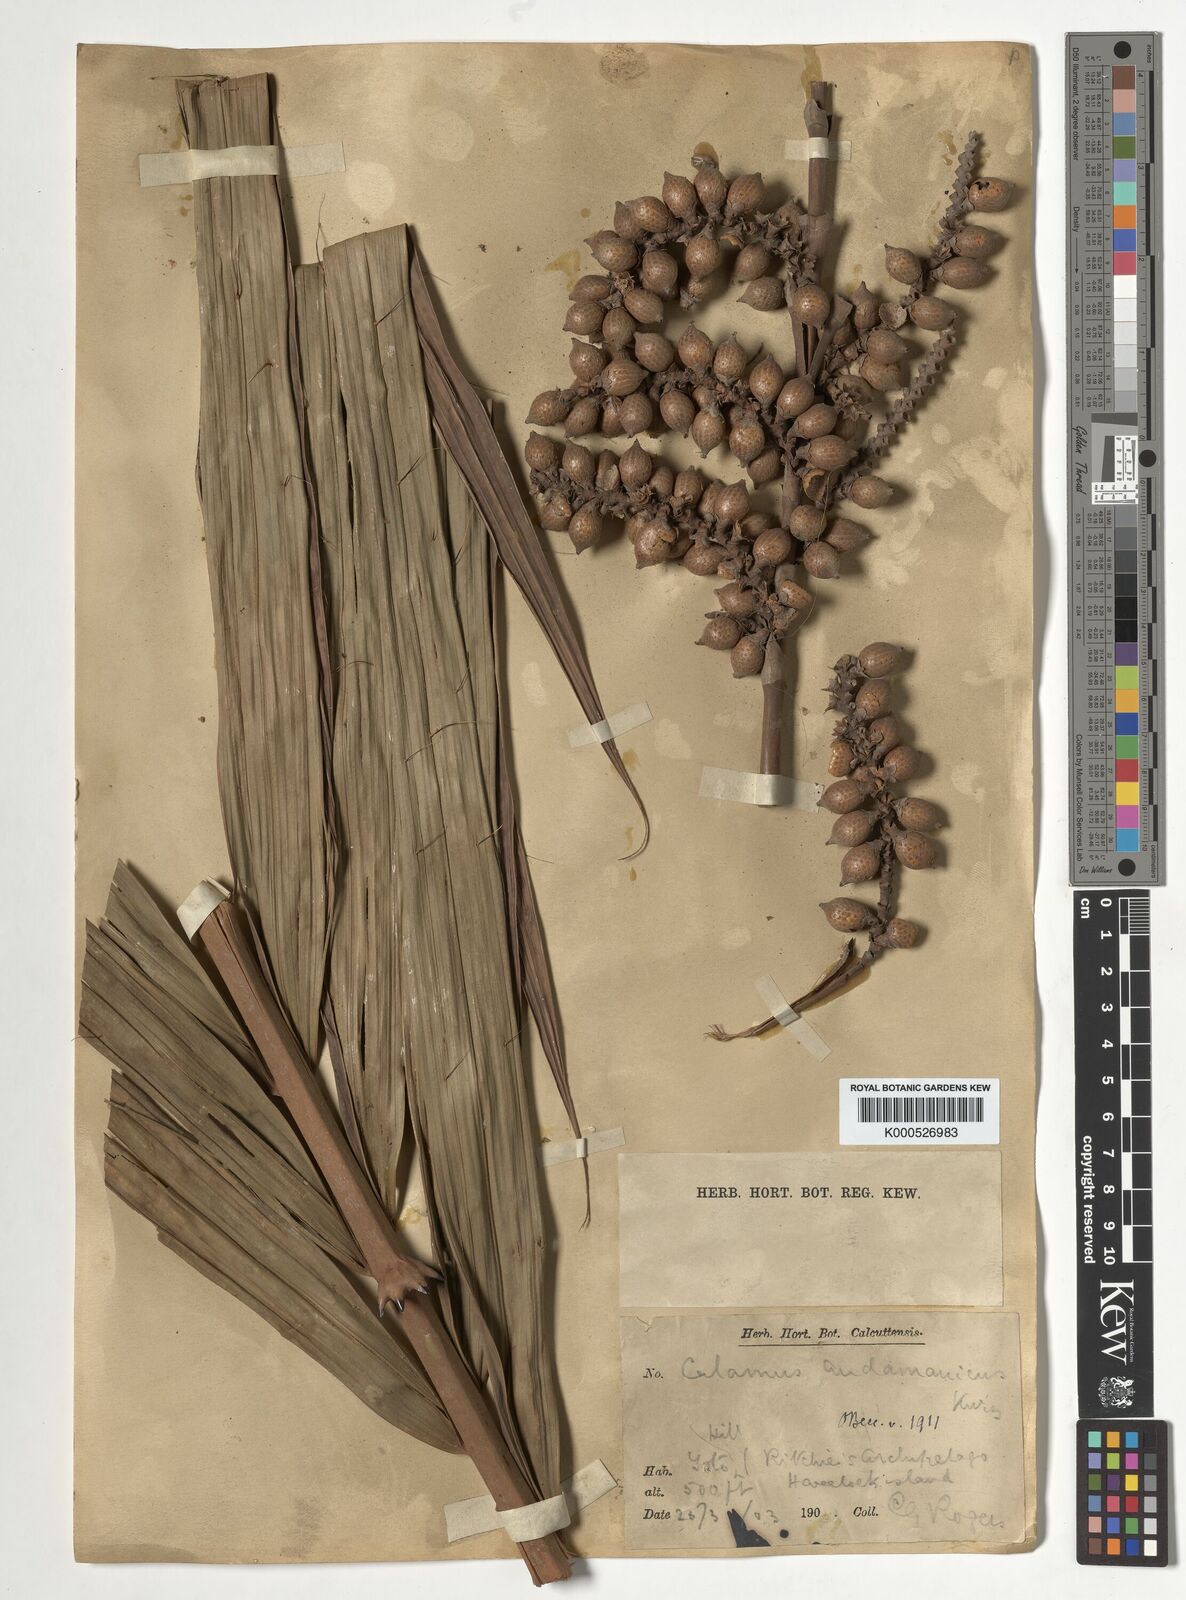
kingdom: Plantae
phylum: Tracheophyta
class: Liliopsida
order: Arecales
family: Arecaceae
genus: Calamus
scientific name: Calamus andamanicus
